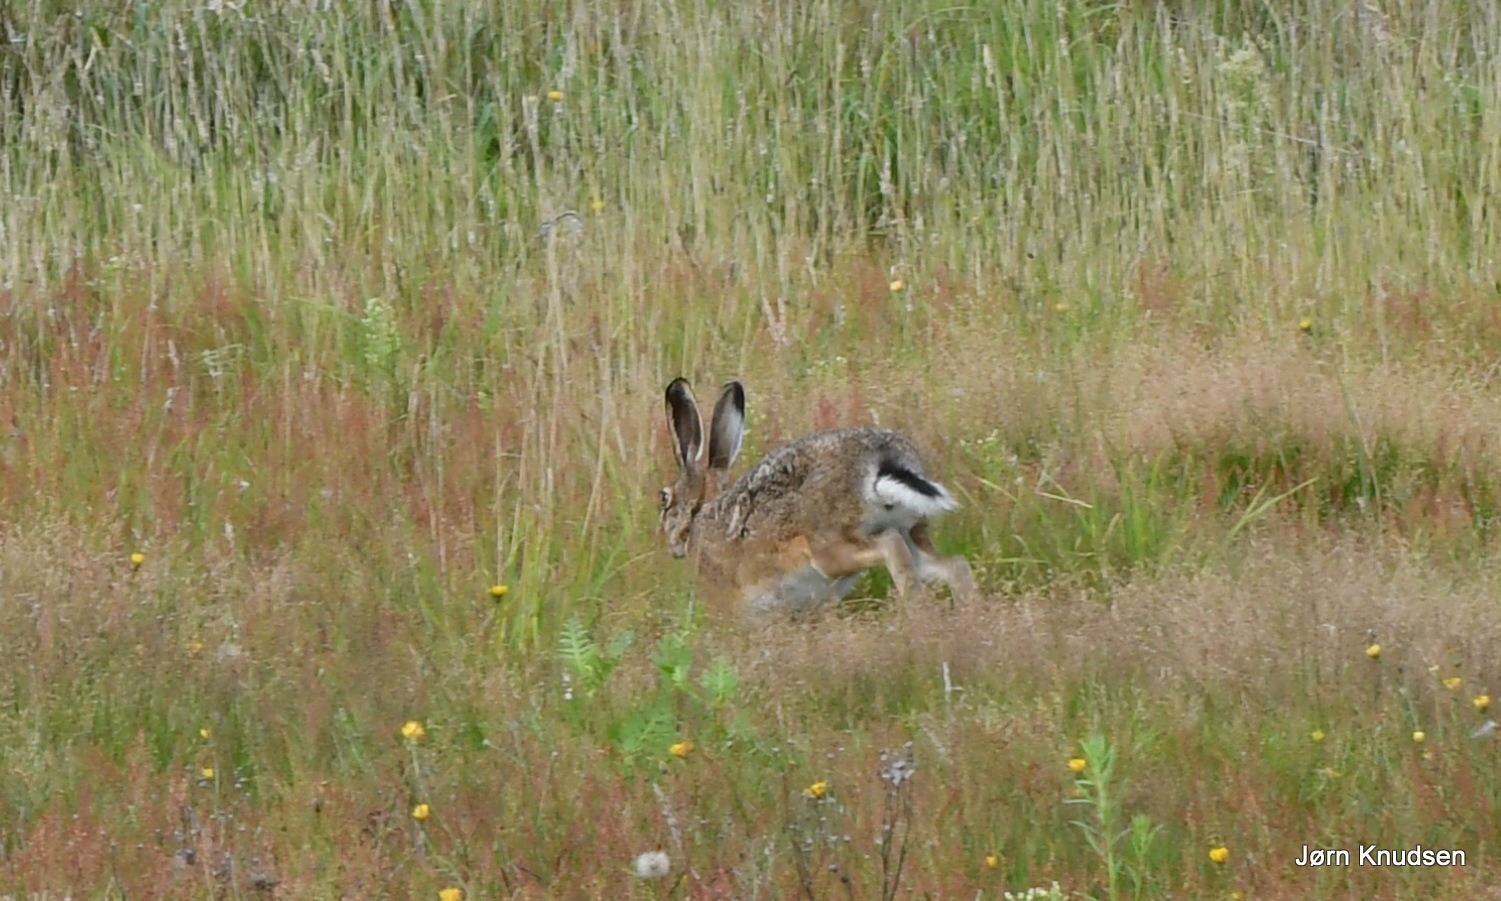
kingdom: Animalia
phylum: Chordata
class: Mammalia
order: Lagomorpha
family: Leporidae
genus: Lepus
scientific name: Lepus europaeus
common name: Hare
